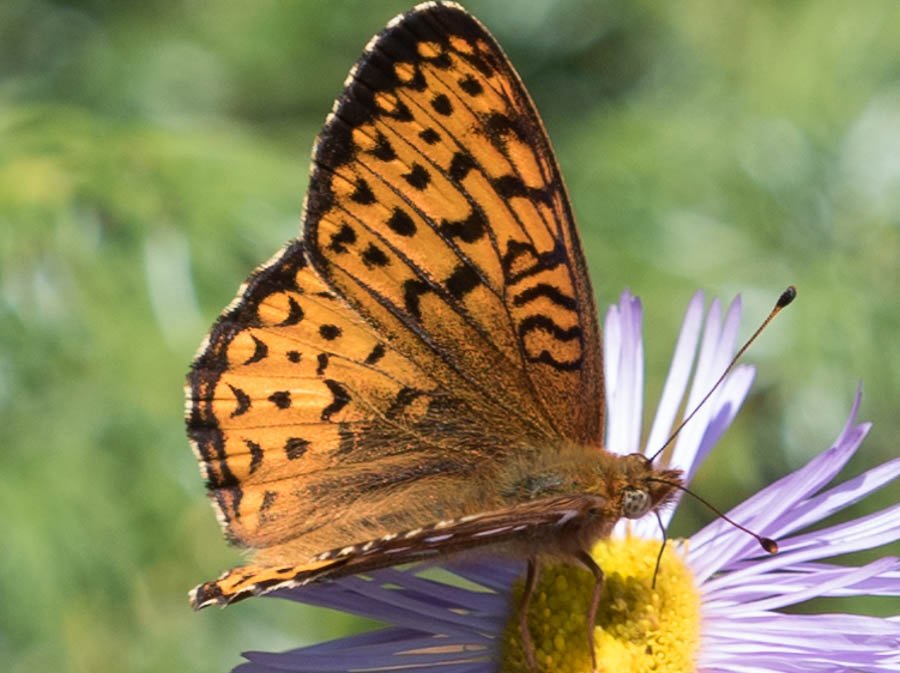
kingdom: Animalia
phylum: Arthropoda
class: Insecta
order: Lepidoptera
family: Nymphalidae
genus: Speyeria
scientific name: Speyeria atlantis
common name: Atlantis Fritillary
